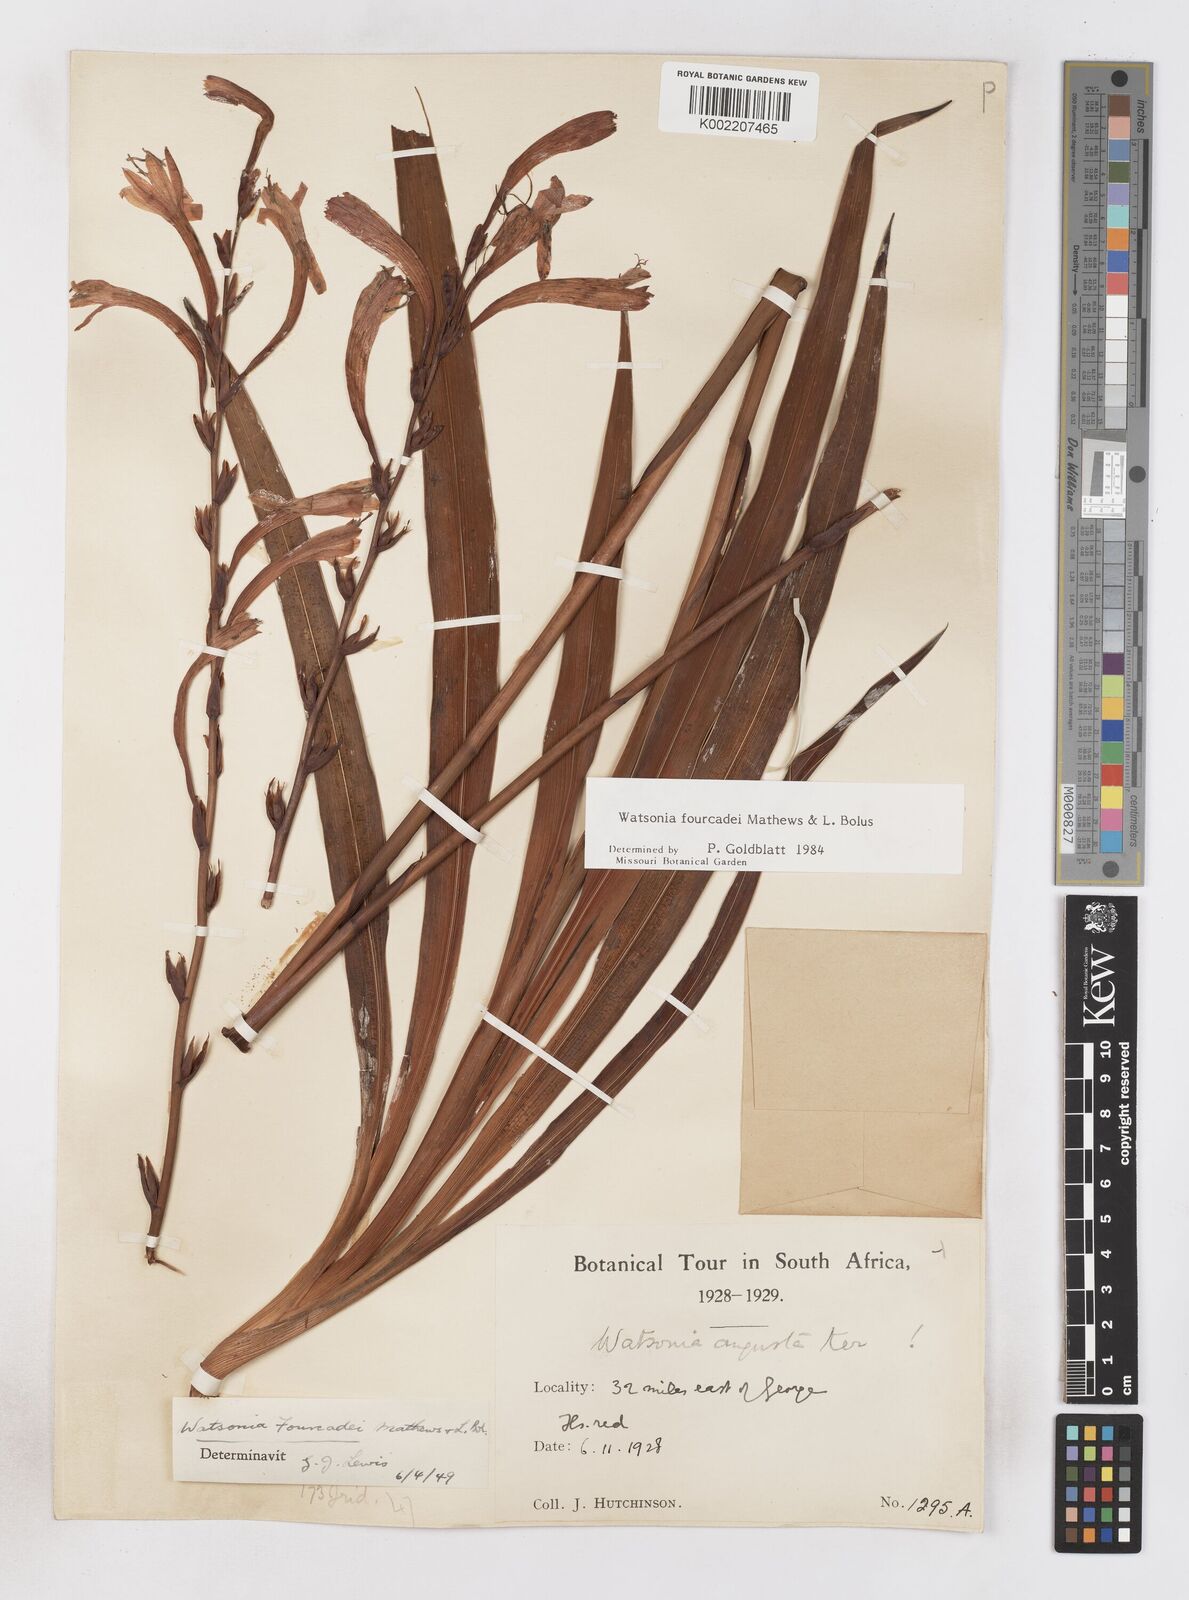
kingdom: Plantae
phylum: Tracheophyta
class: Liliopsida
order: Asparagales
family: Iridaceae
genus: Watsonia
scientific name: Watsonia fourcadei
